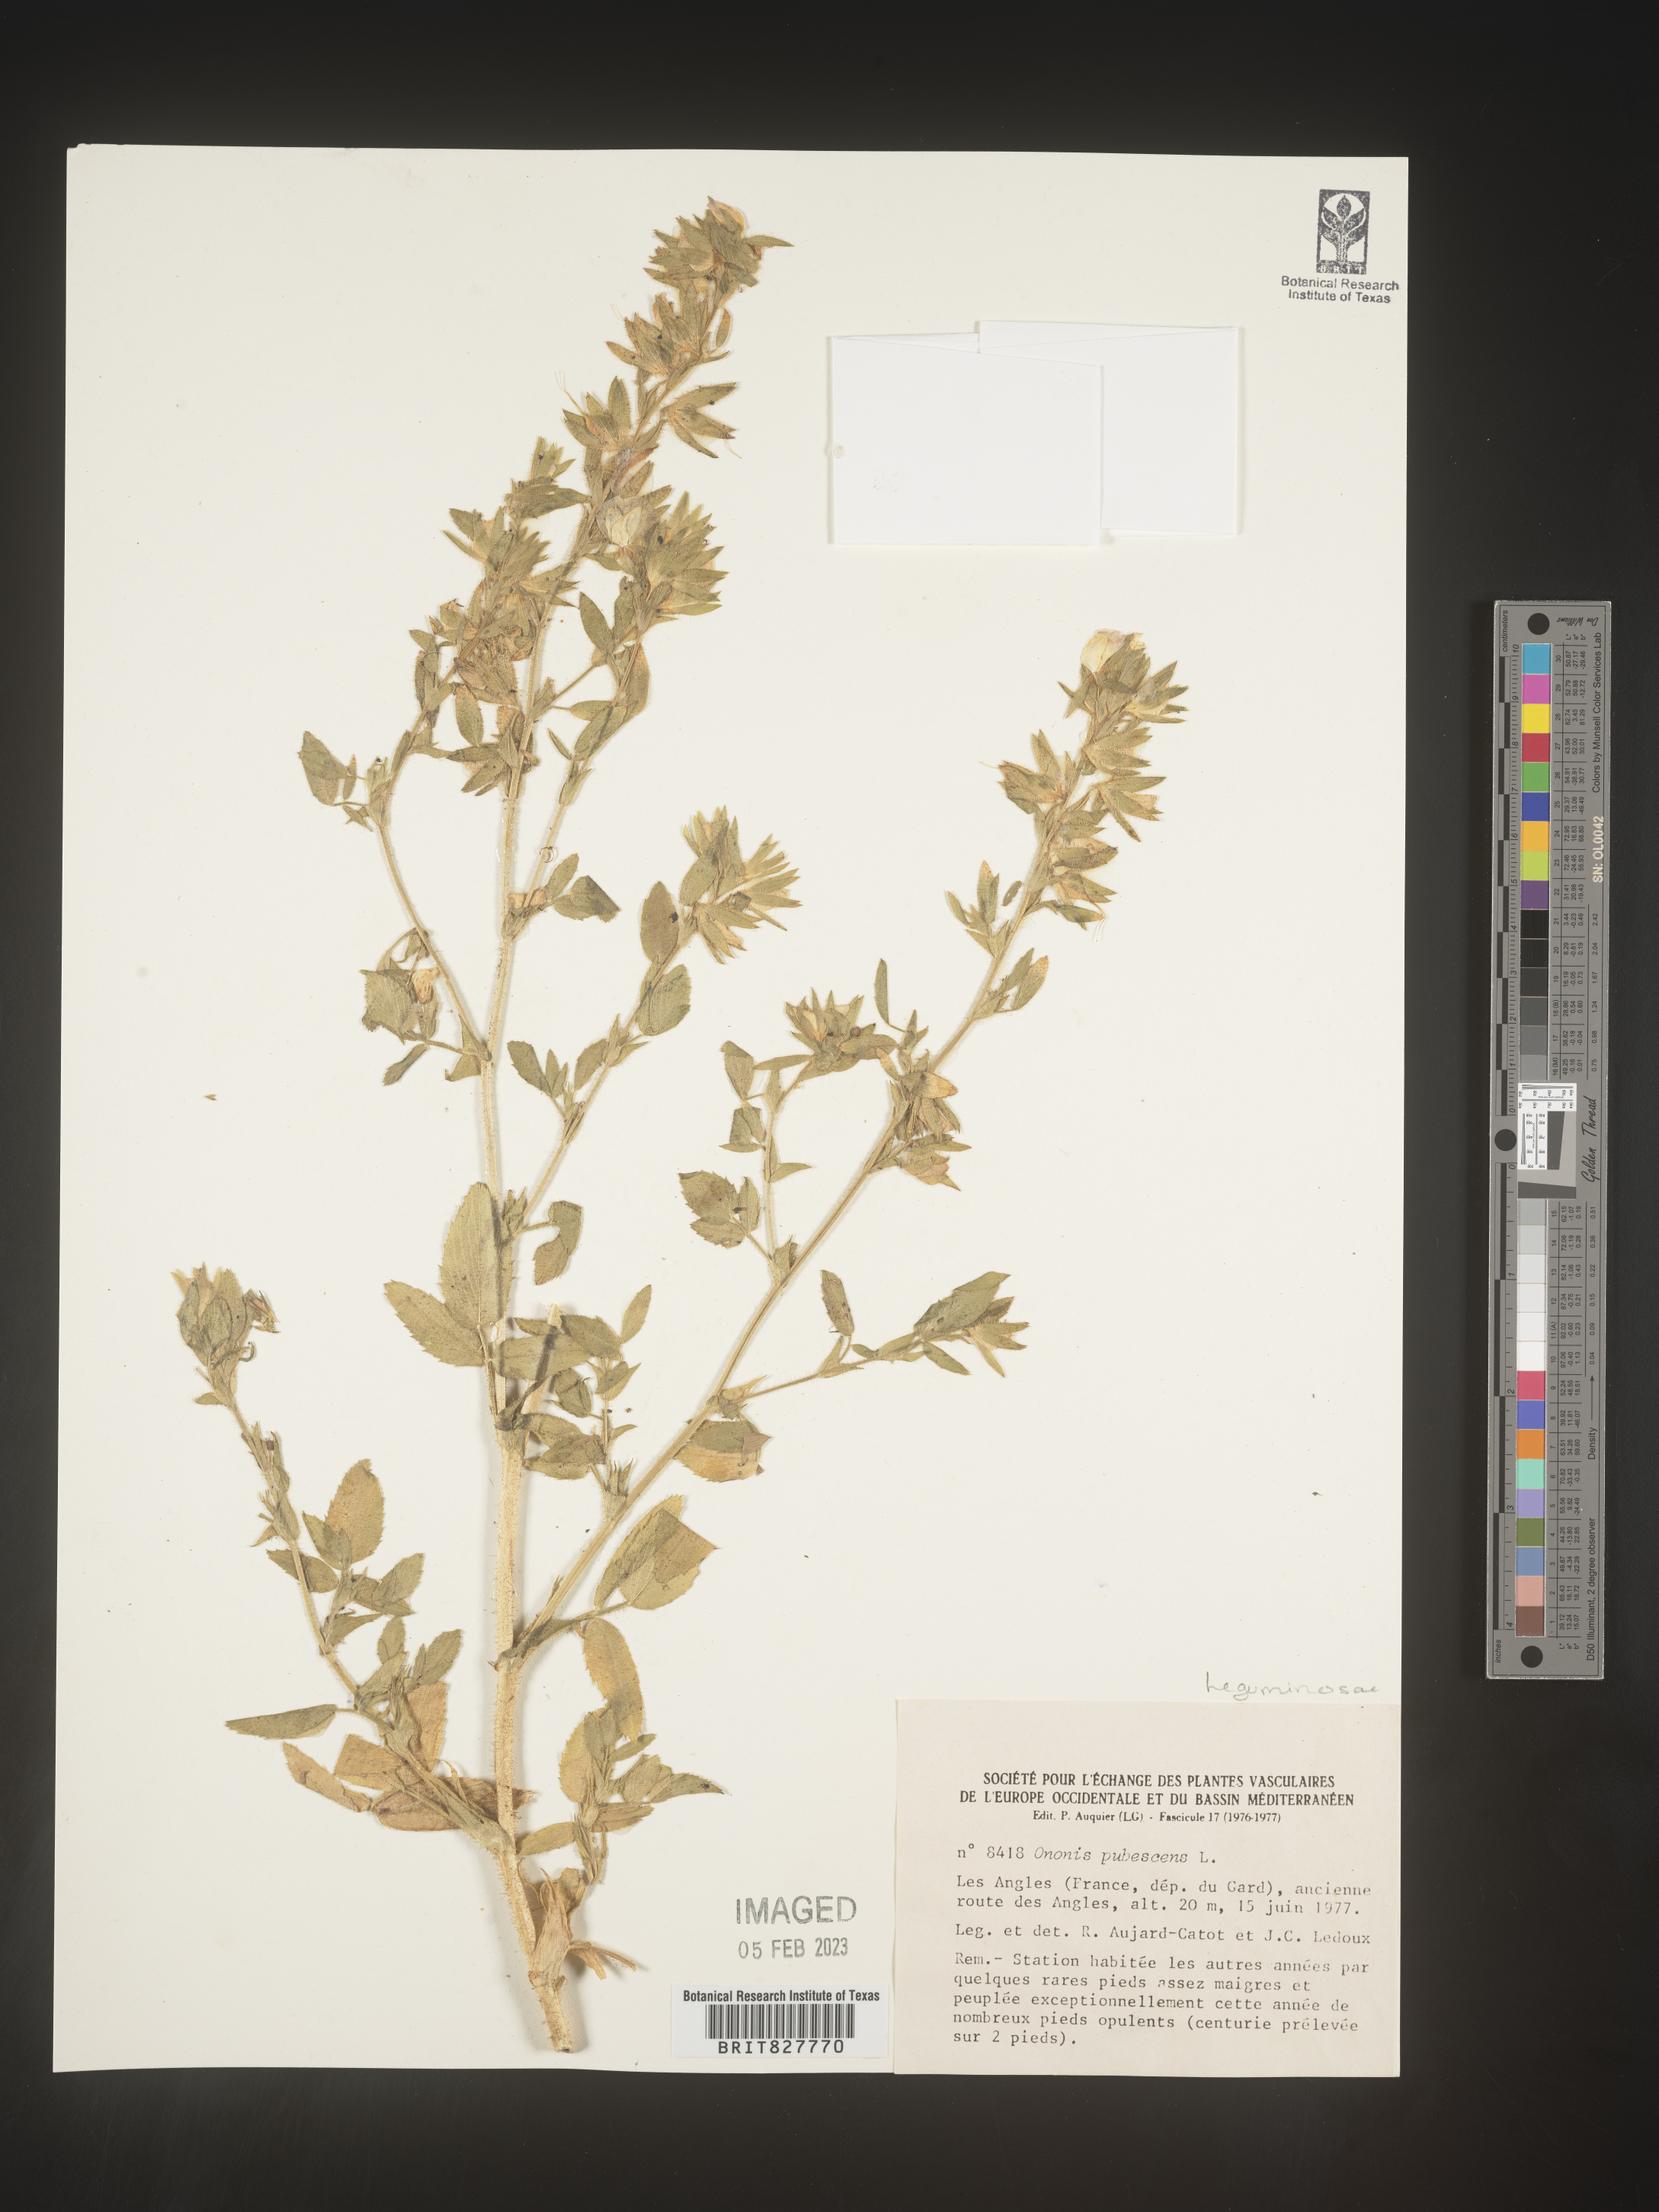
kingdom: Plantae
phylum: Tracheophyta
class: Magnoliopsida
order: Fabales
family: Fabaceae
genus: Ononis
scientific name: Ononis
